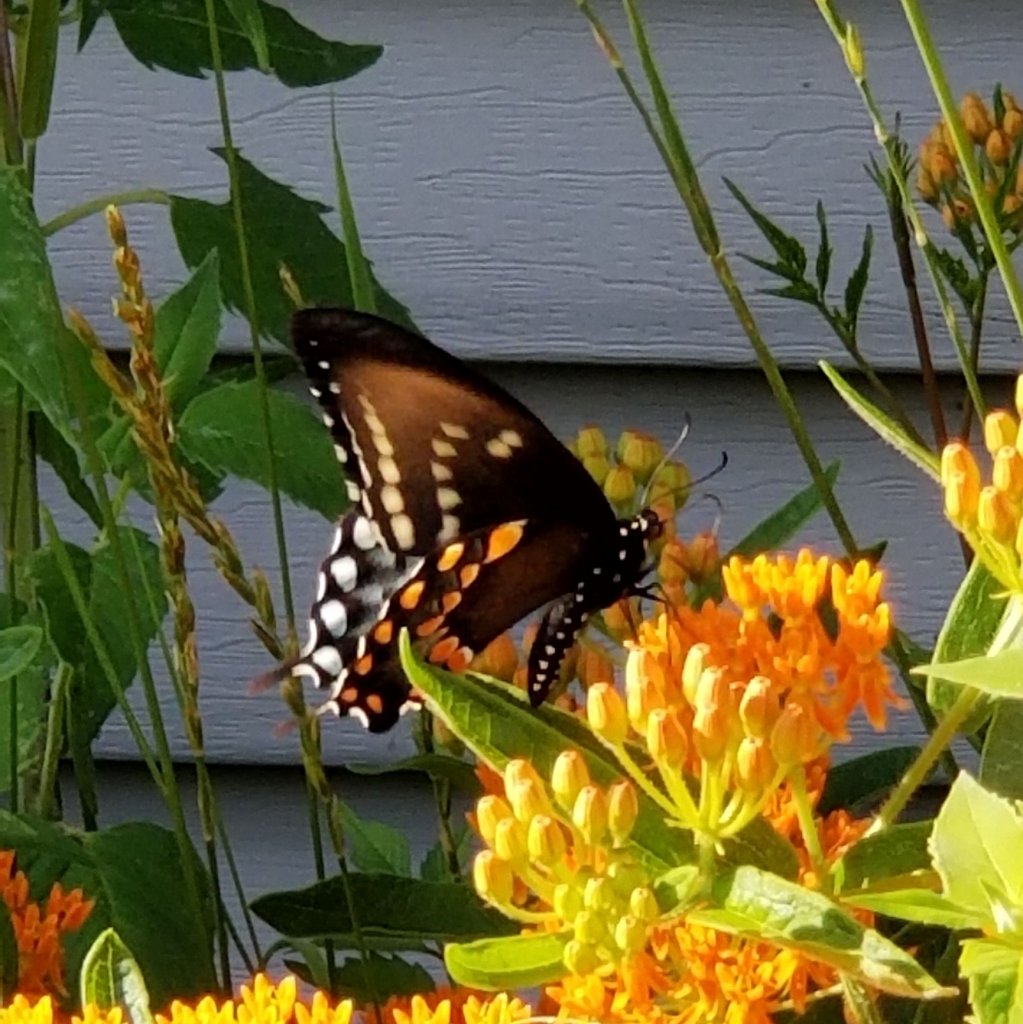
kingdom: Animalia
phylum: Arthropoda
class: Insecta
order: Lepidoptera
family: Papilionidae
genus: Papilio
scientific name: Papilio
